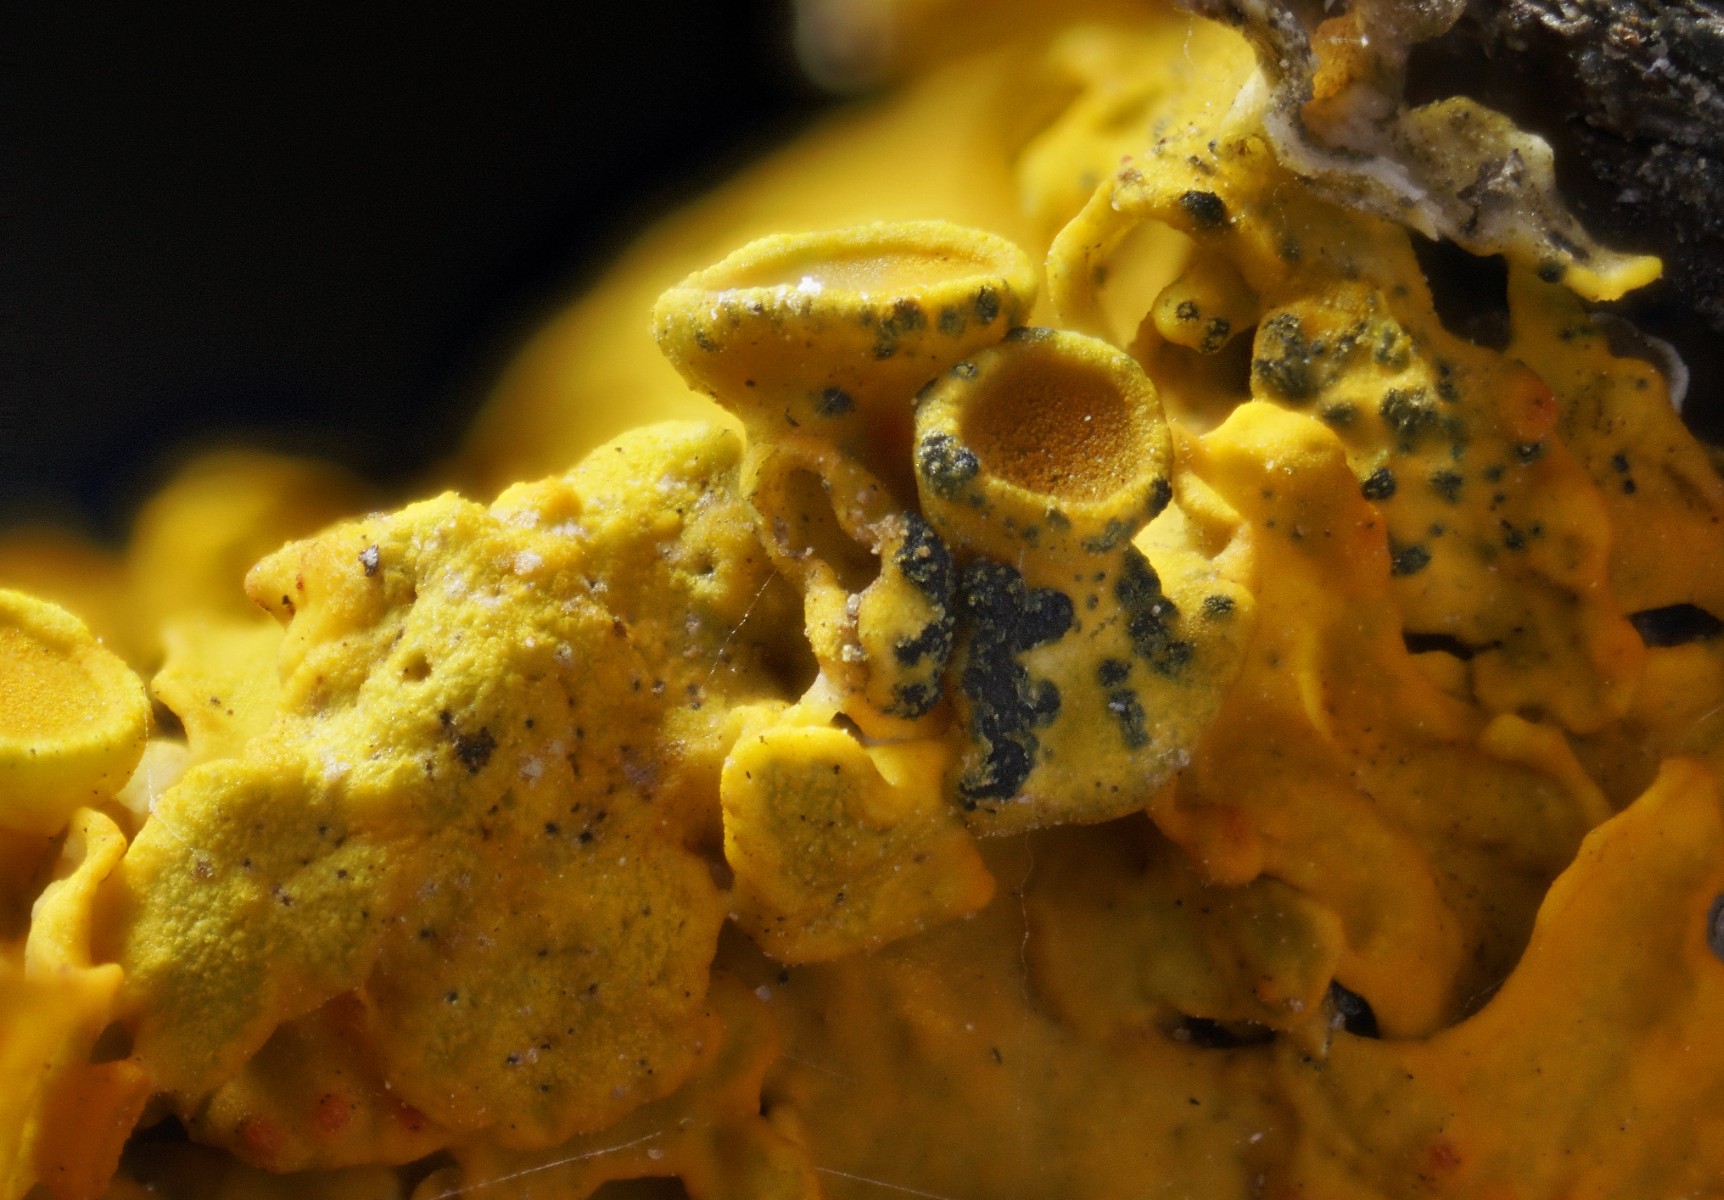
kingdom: Fungi
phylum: Ascomycota
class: Arthoniomycetes
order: Arthoniales
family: Arthoniaceae
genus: Bryostigma
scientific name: Bryostigma parietinarium
